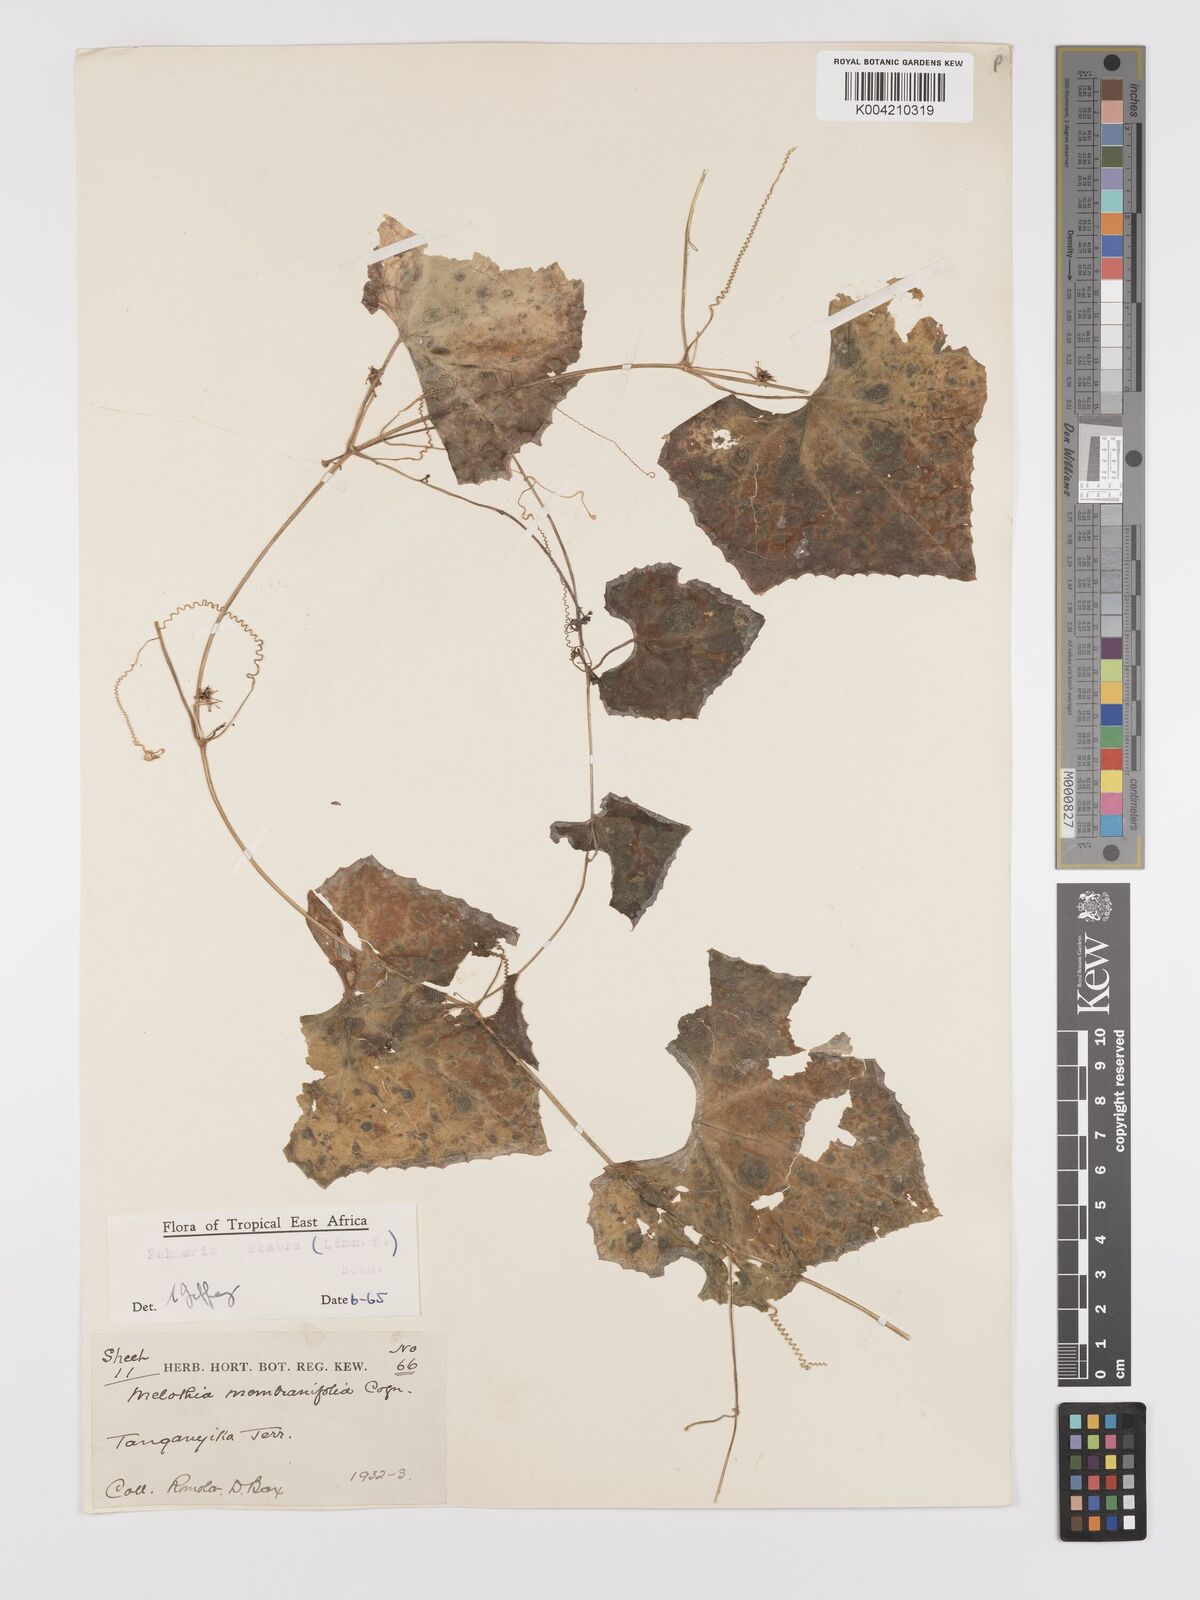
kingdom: Plantae
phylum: Tracheophyta
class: Magnoliopsida
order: Cucurbitales
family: Cucurbitaceae
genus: Zehneria
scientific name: Zehneria scabra
